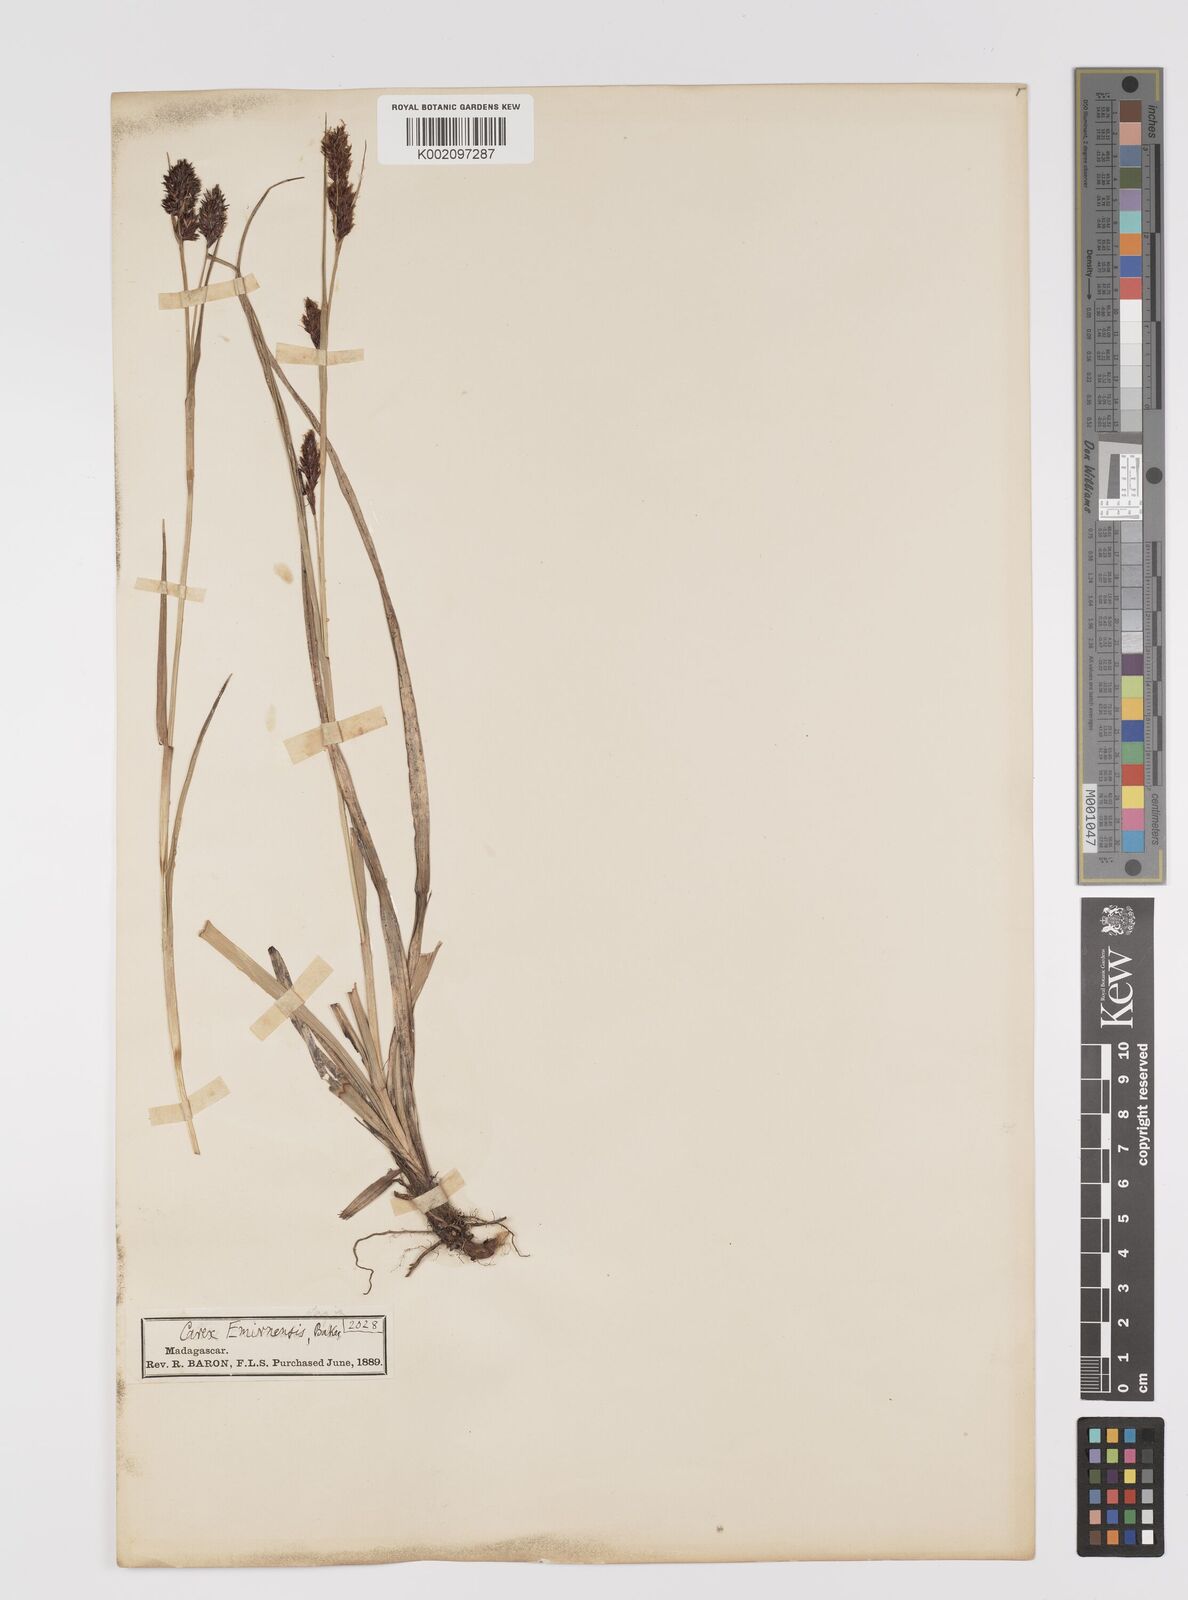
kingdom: Plantae
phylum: Tracheophyta
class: Liliopsida
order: Poales
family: Cyperaceae
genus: Carex
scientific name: Carex rutenbergiana
